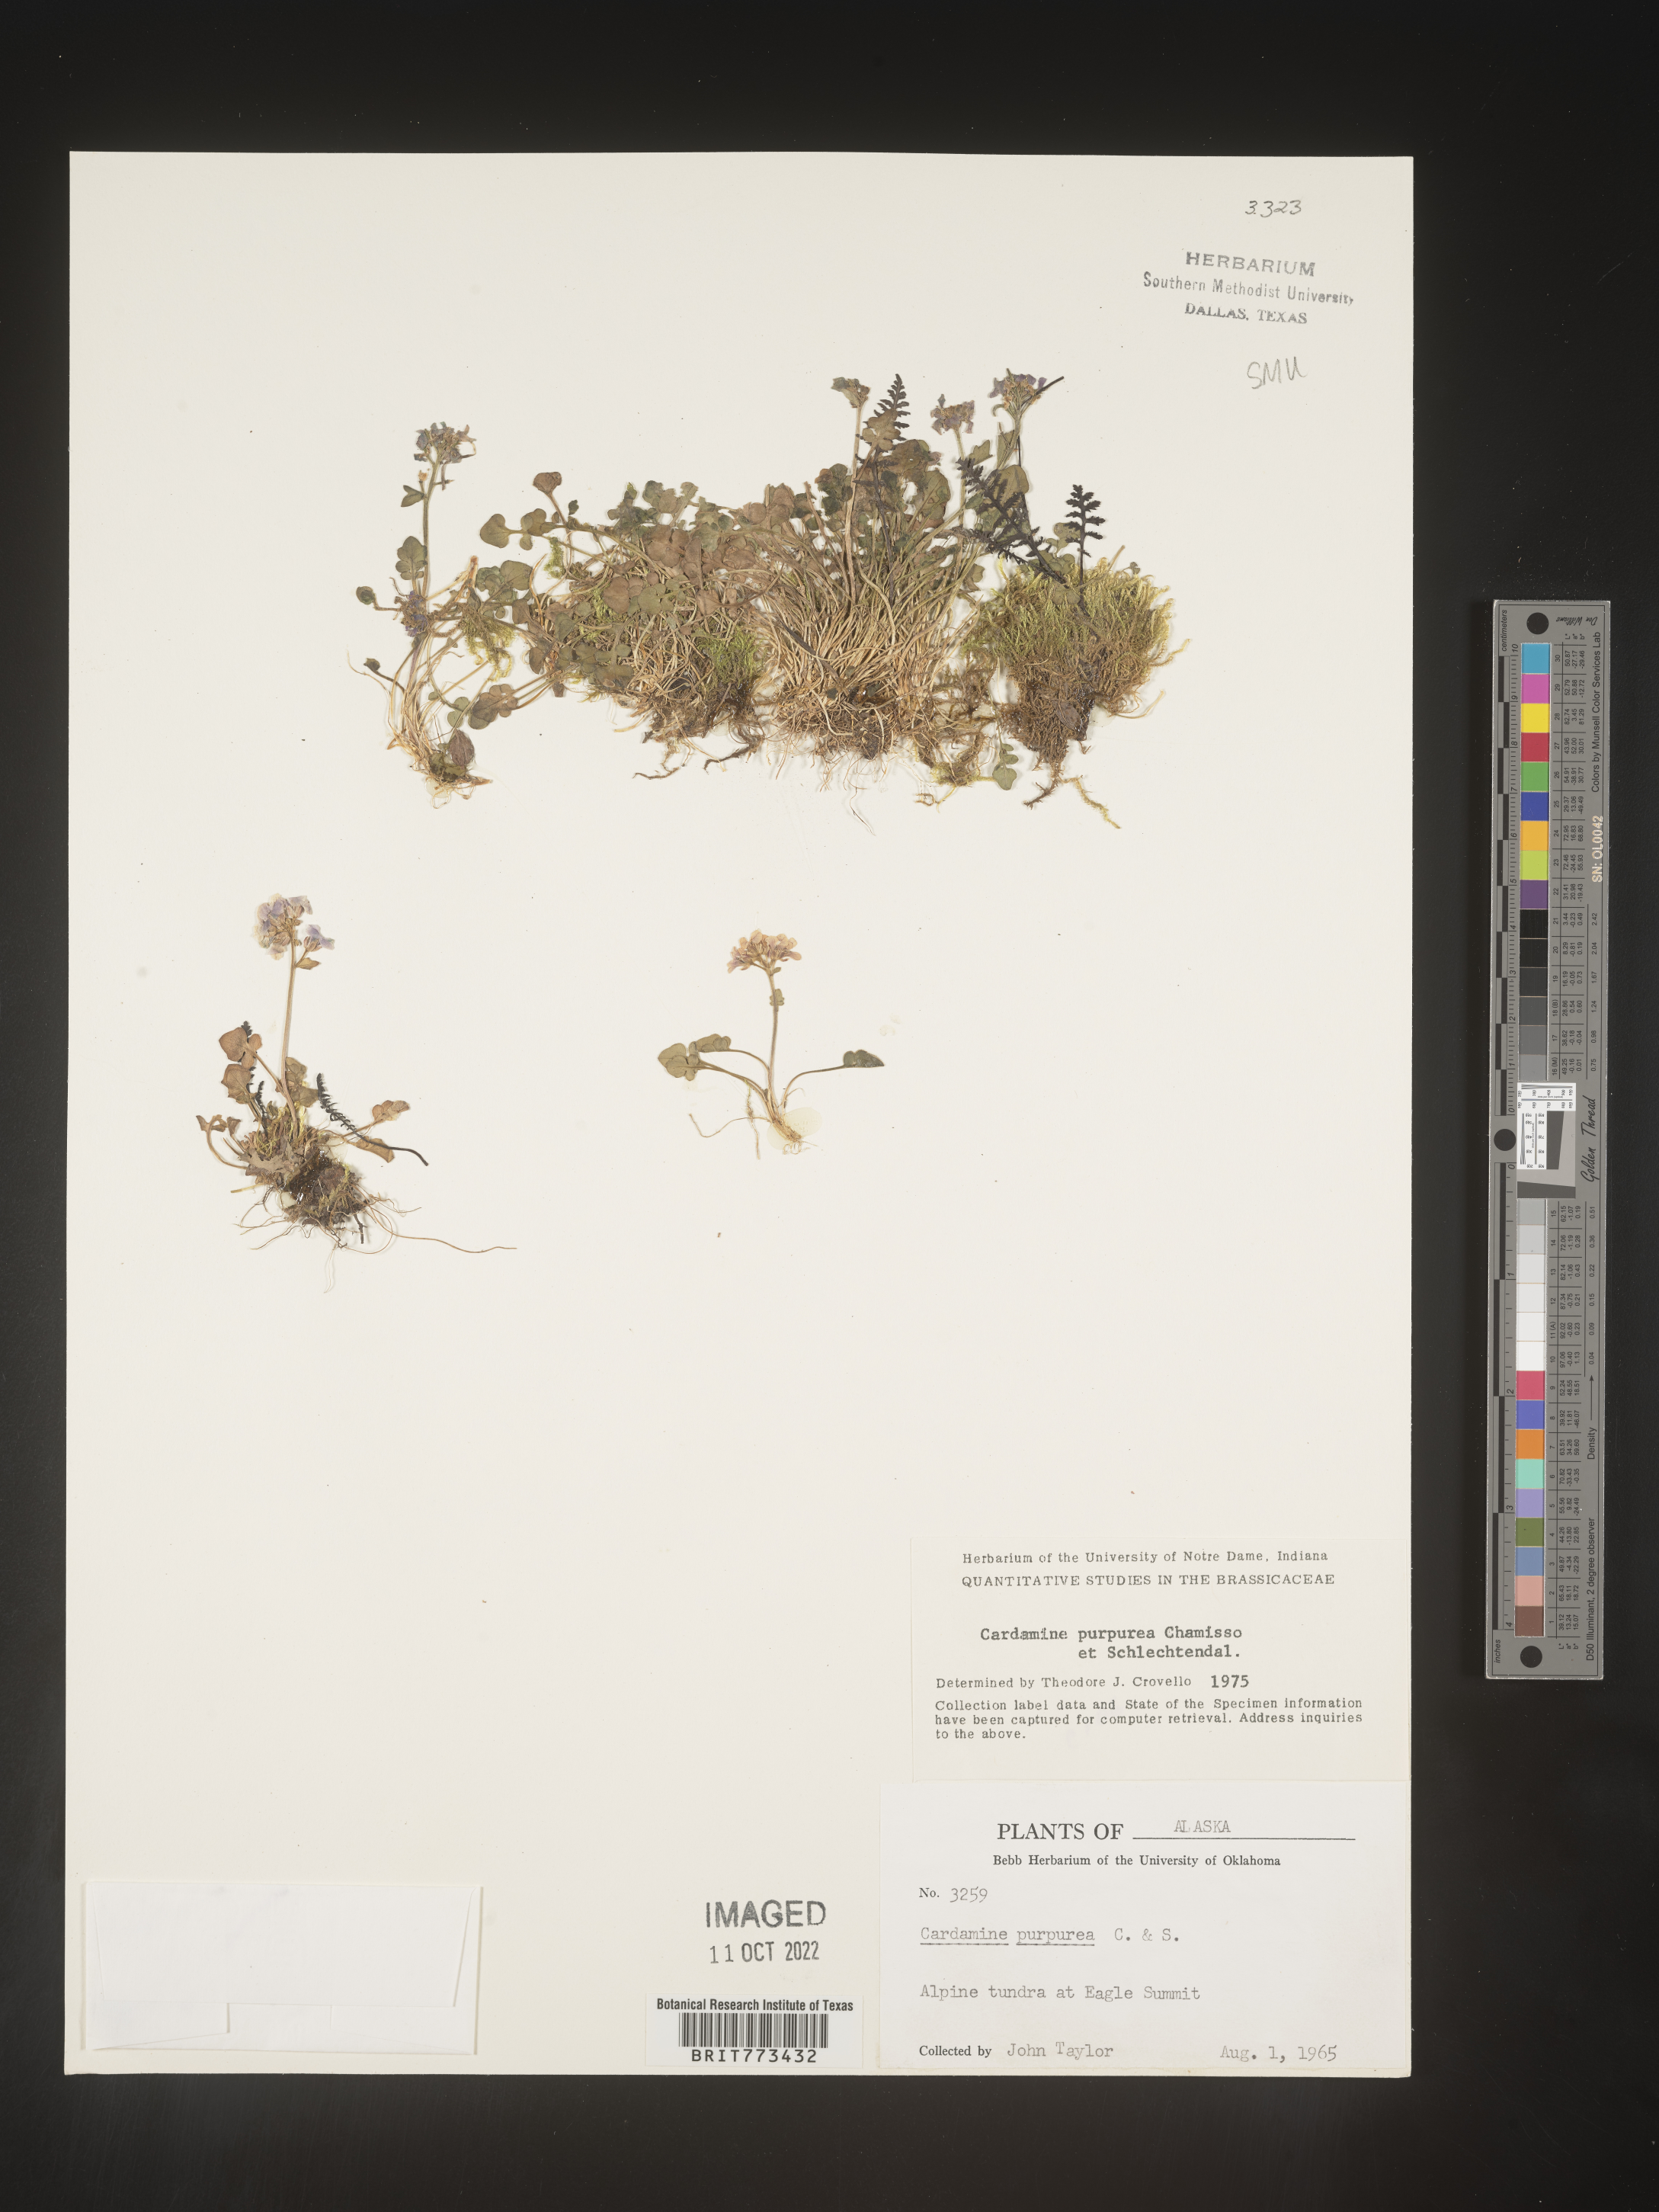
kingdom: Plantae
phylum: Tracheophyta
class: Magnoliopsida
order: Brassicales
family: Brassicaceae
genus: Cardamine
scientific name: Cardamine
